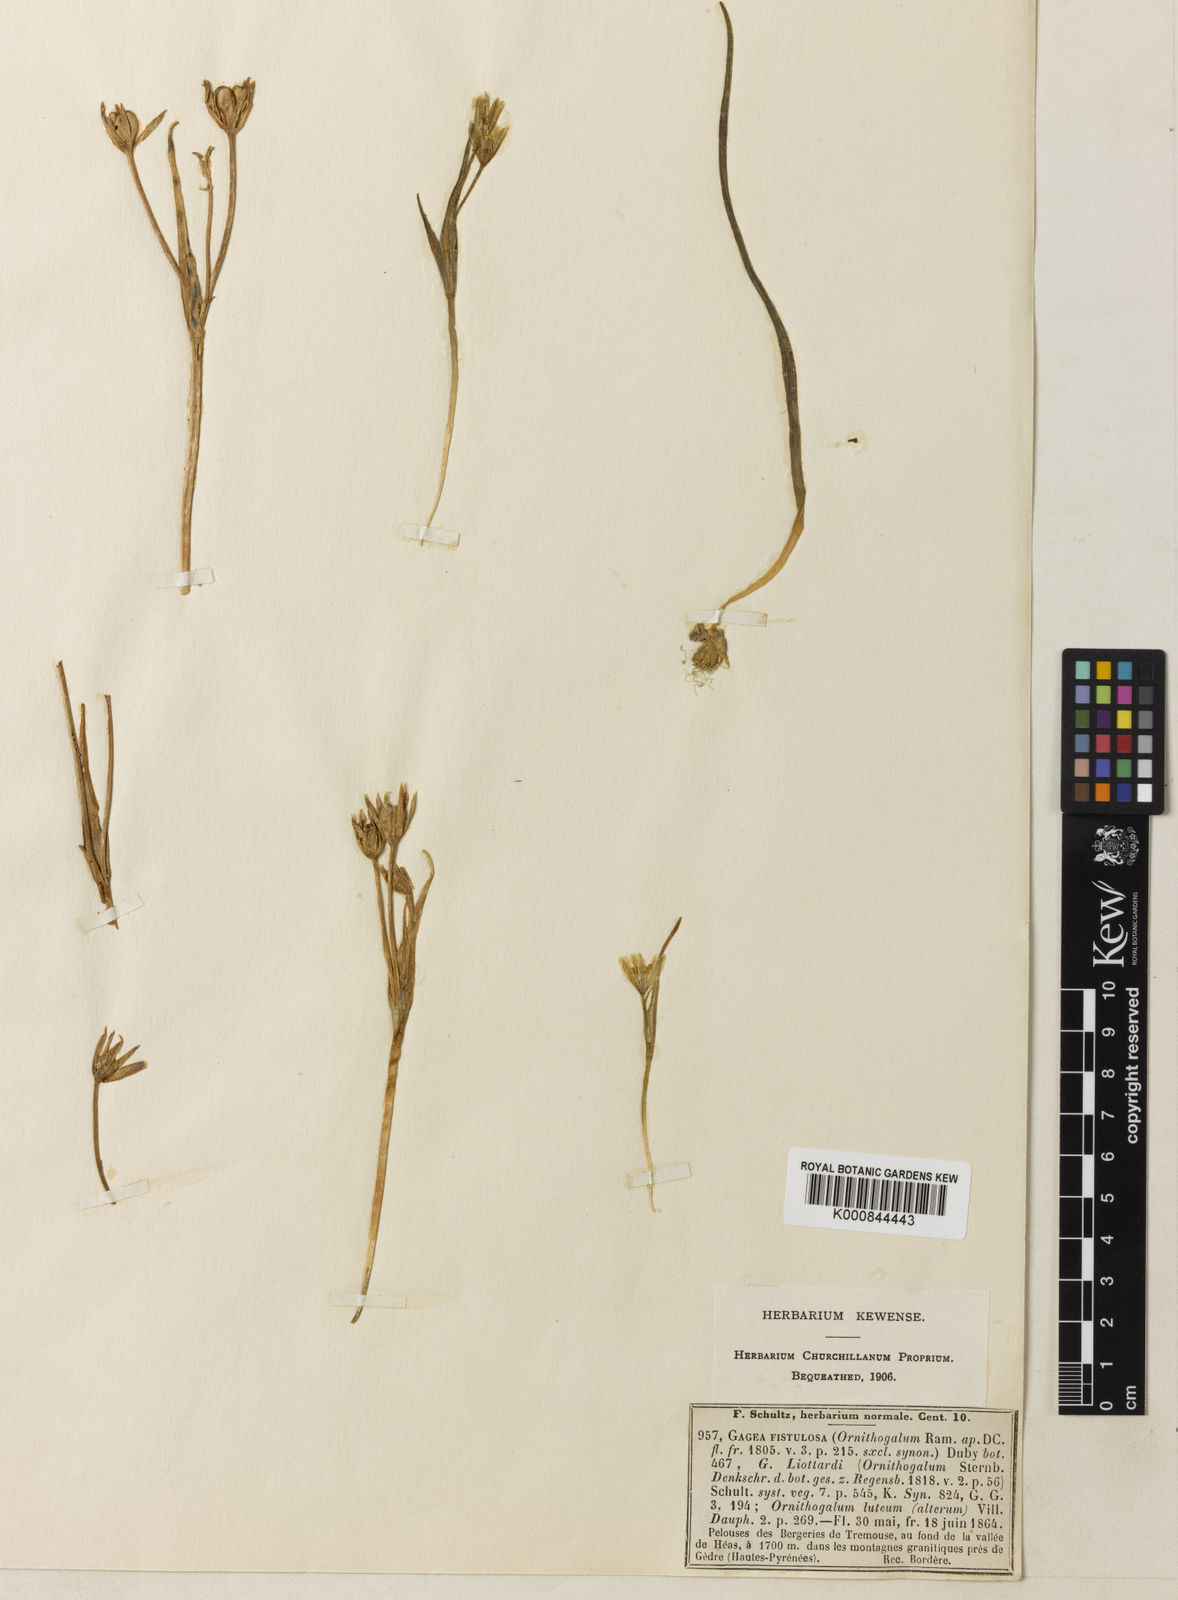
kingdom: Plantae
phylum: Tracheophyta
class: Liliopsida
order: Liliales
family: Liliaceae
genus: Gagea
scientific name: Gagea bohemica
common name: Early star-of-bethlehem
